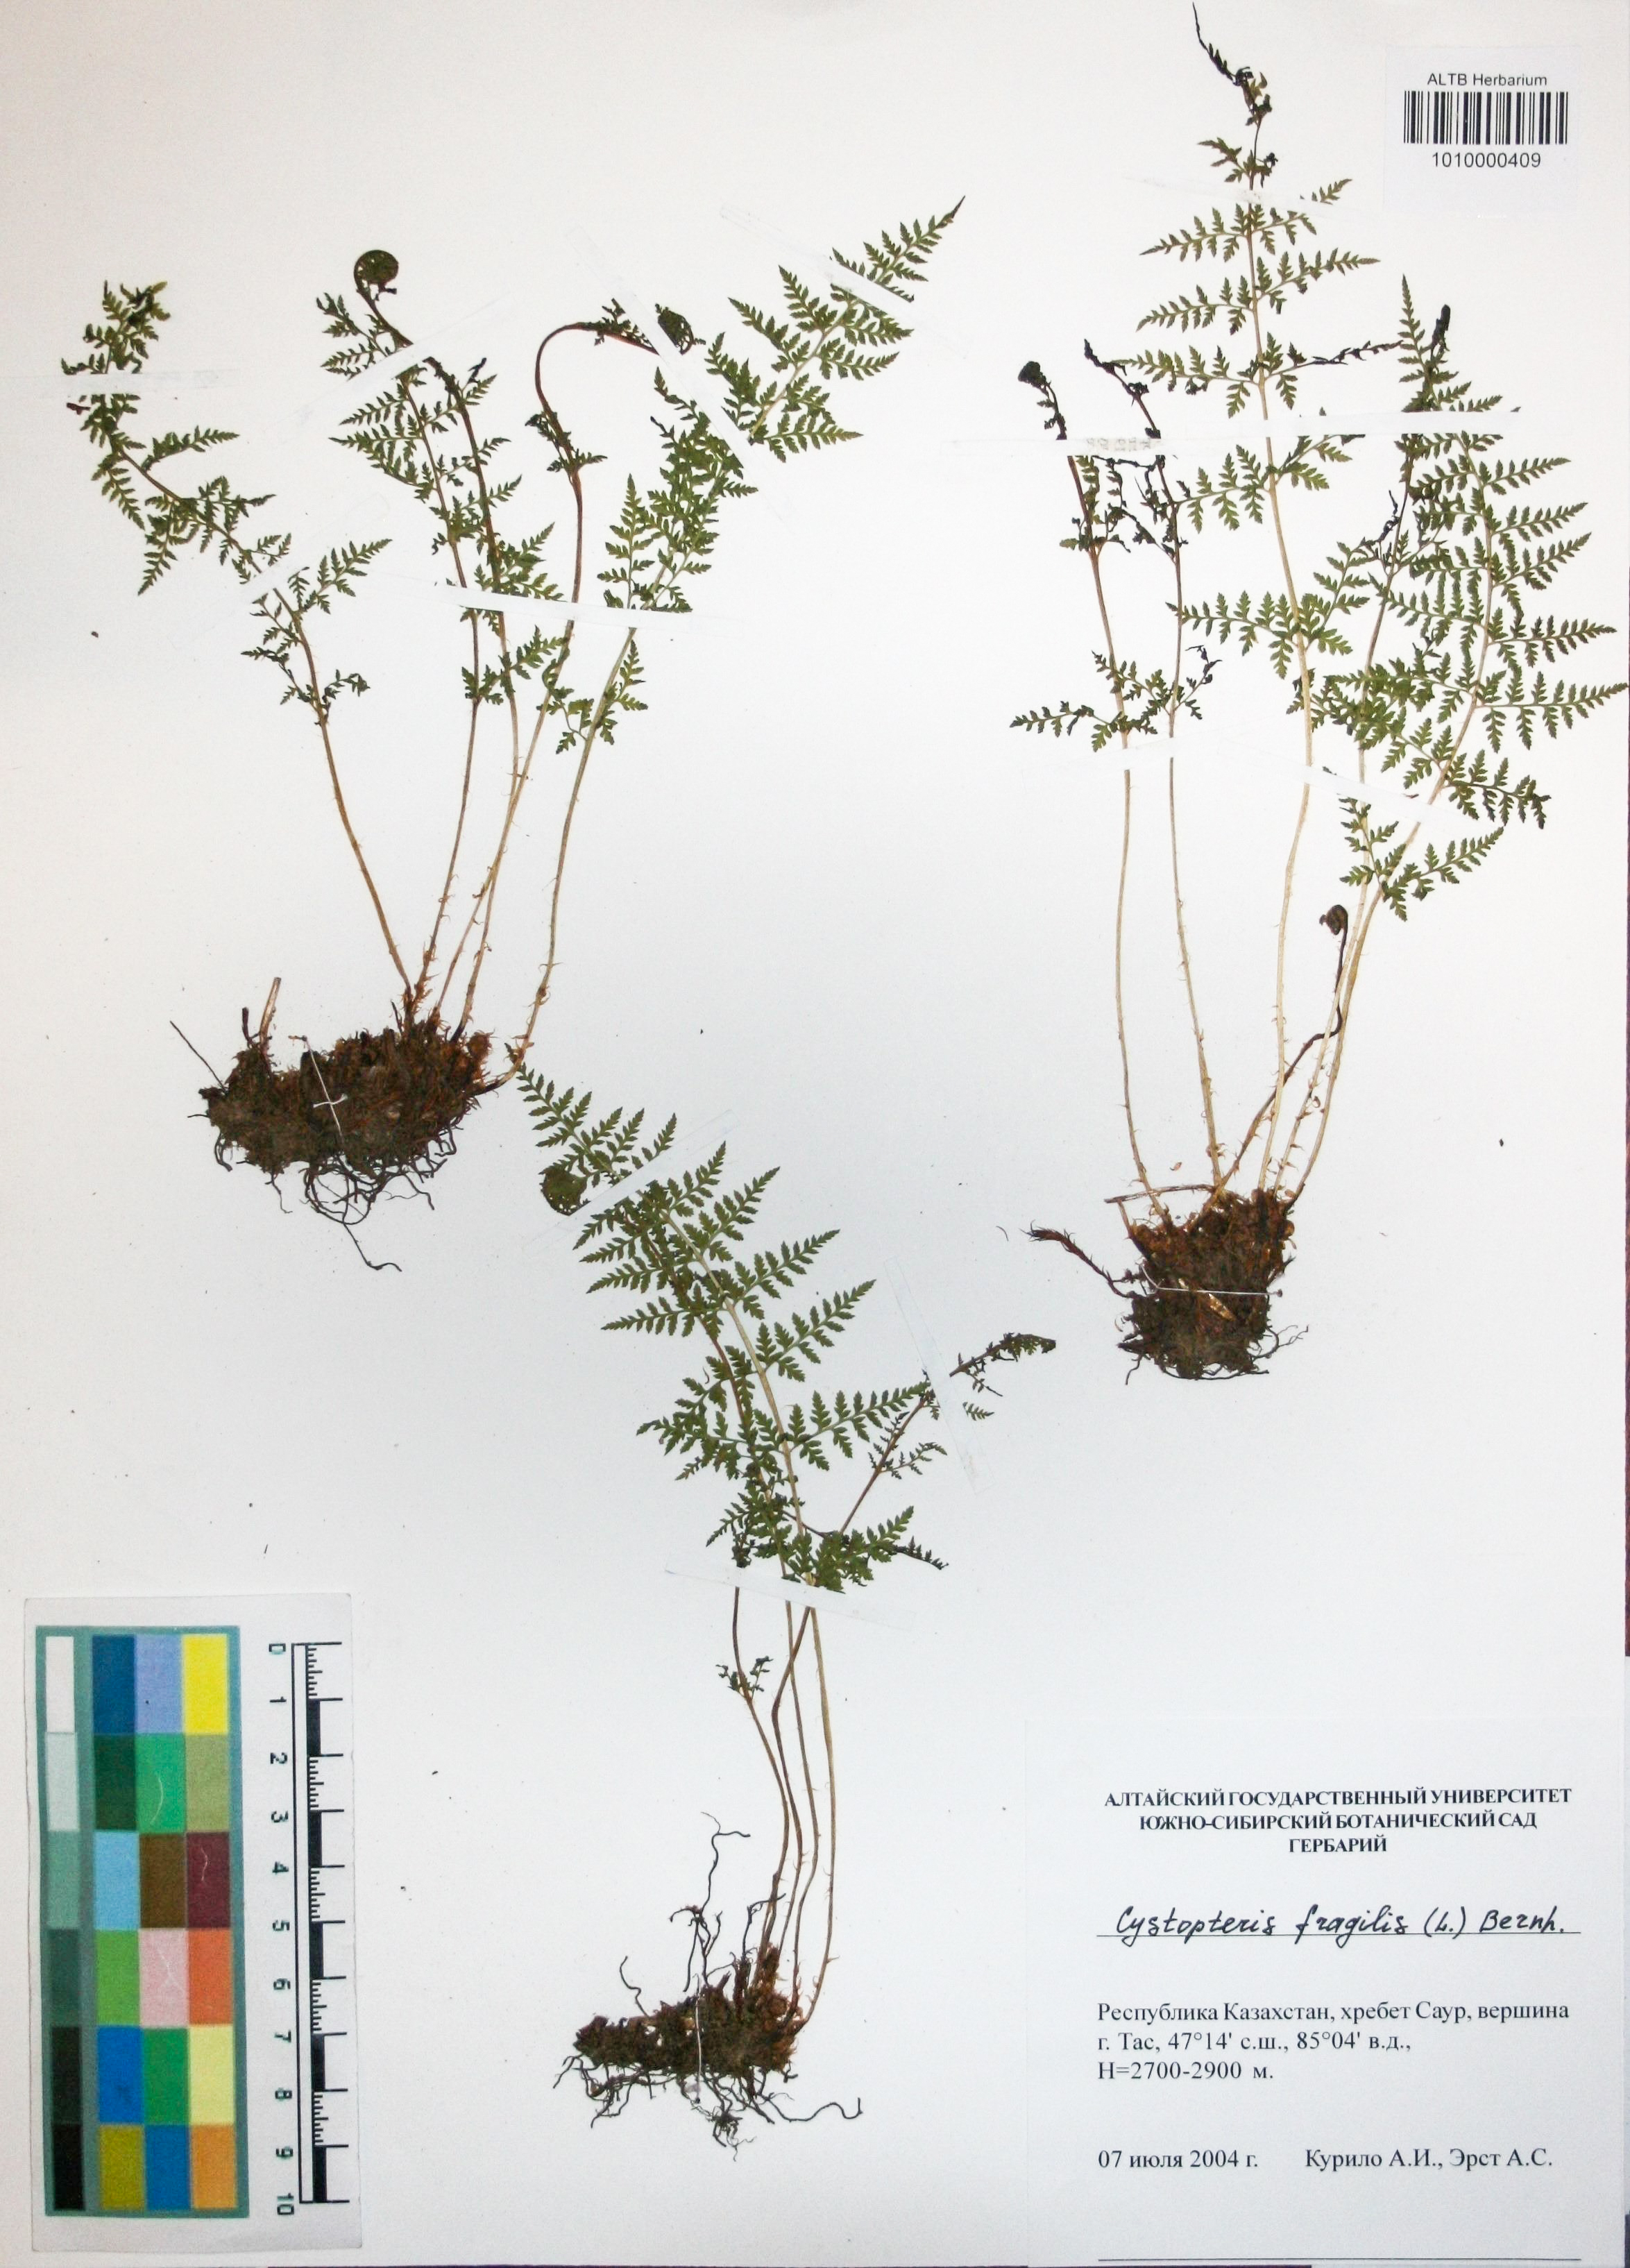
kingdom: Plantae
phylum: Tracheophyta
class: Polypodiopsida
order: Polypodiales
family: Cystopteridaceae
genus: Cystopteris
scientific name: Cystopteris fragilis
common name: Brittle bladder fern
